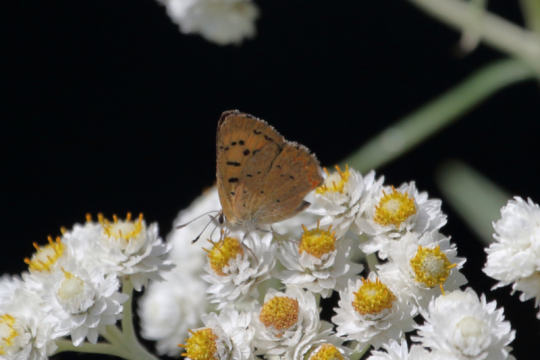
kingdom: Animalia
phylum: Arthropoda
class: Insecta
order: Lepidoptera
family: Sesiidae
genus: Sesia
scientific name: Sesia Lycaena helloides
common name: Purplish Copper
